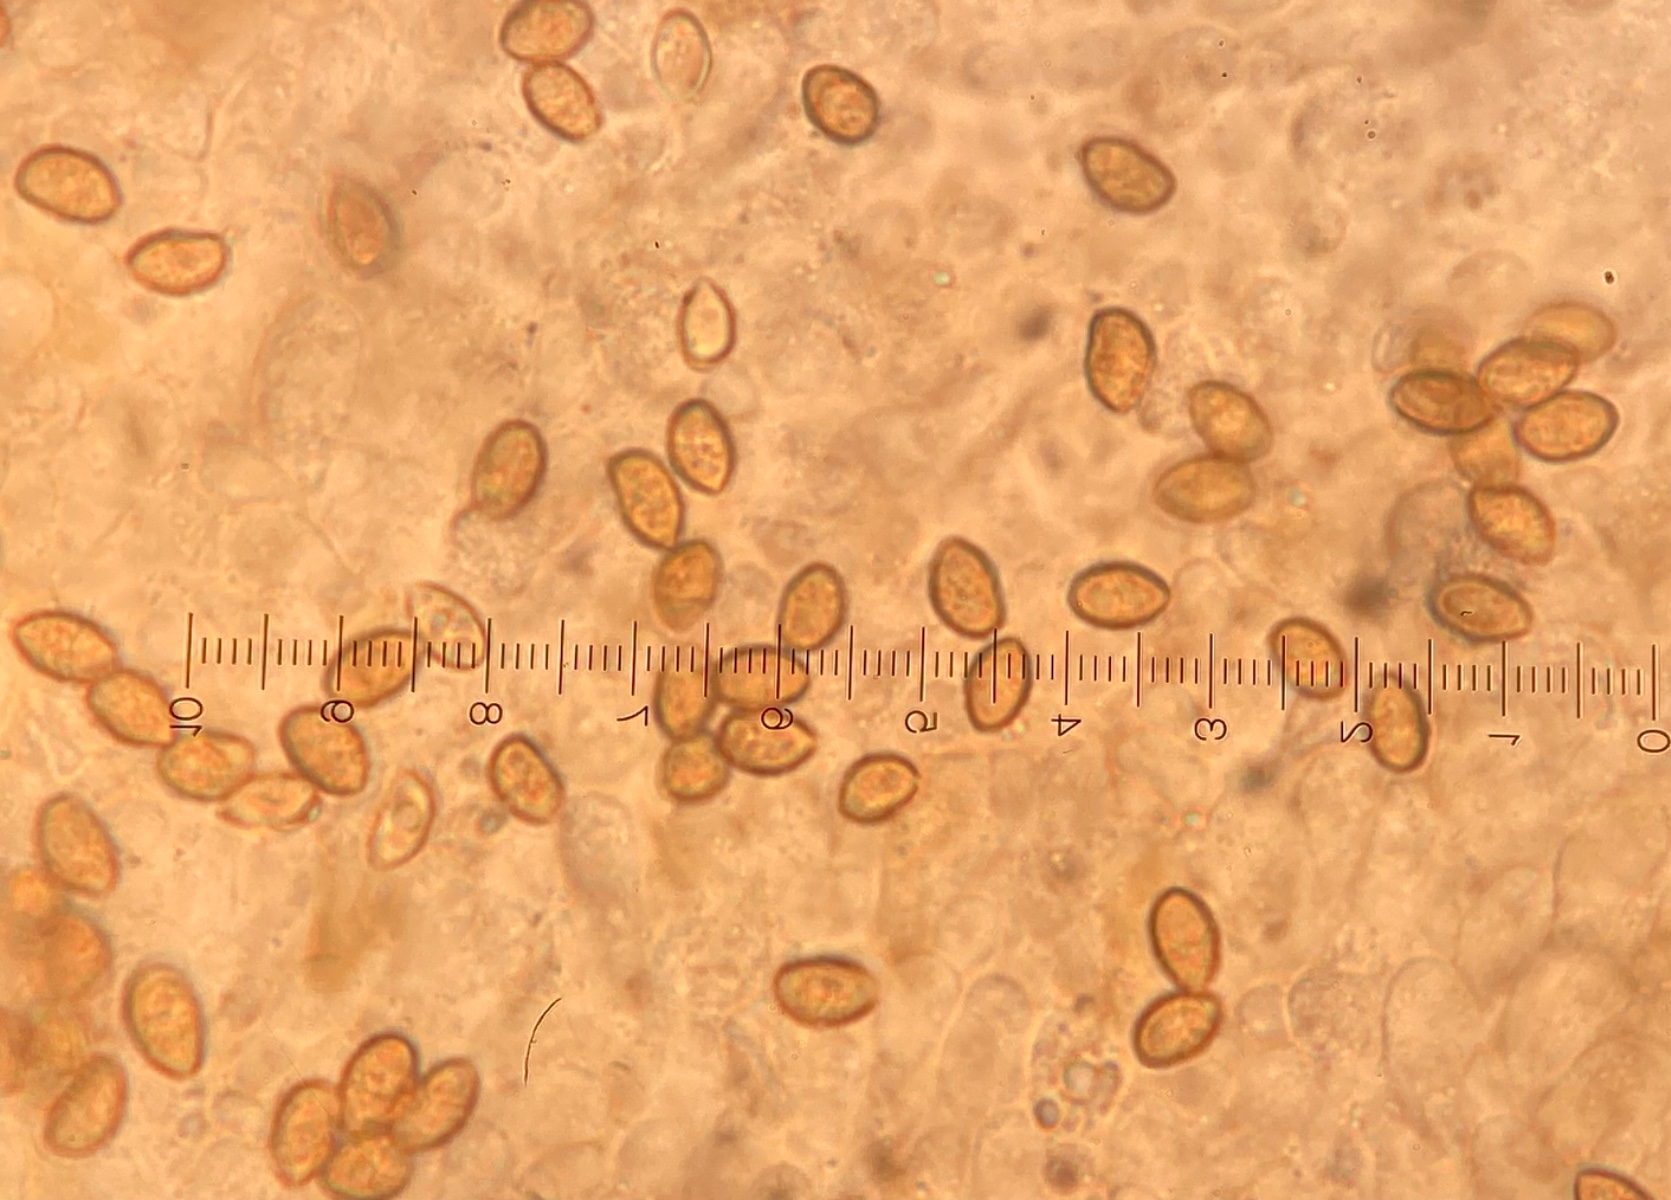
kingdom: Fungi
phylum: Basidiomycota
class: Agaricomycetes
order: Agaricales
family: Hymenogastraceae
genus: Galerina
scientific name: Galerina triscopa
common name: spidspuklet hjelmhat
